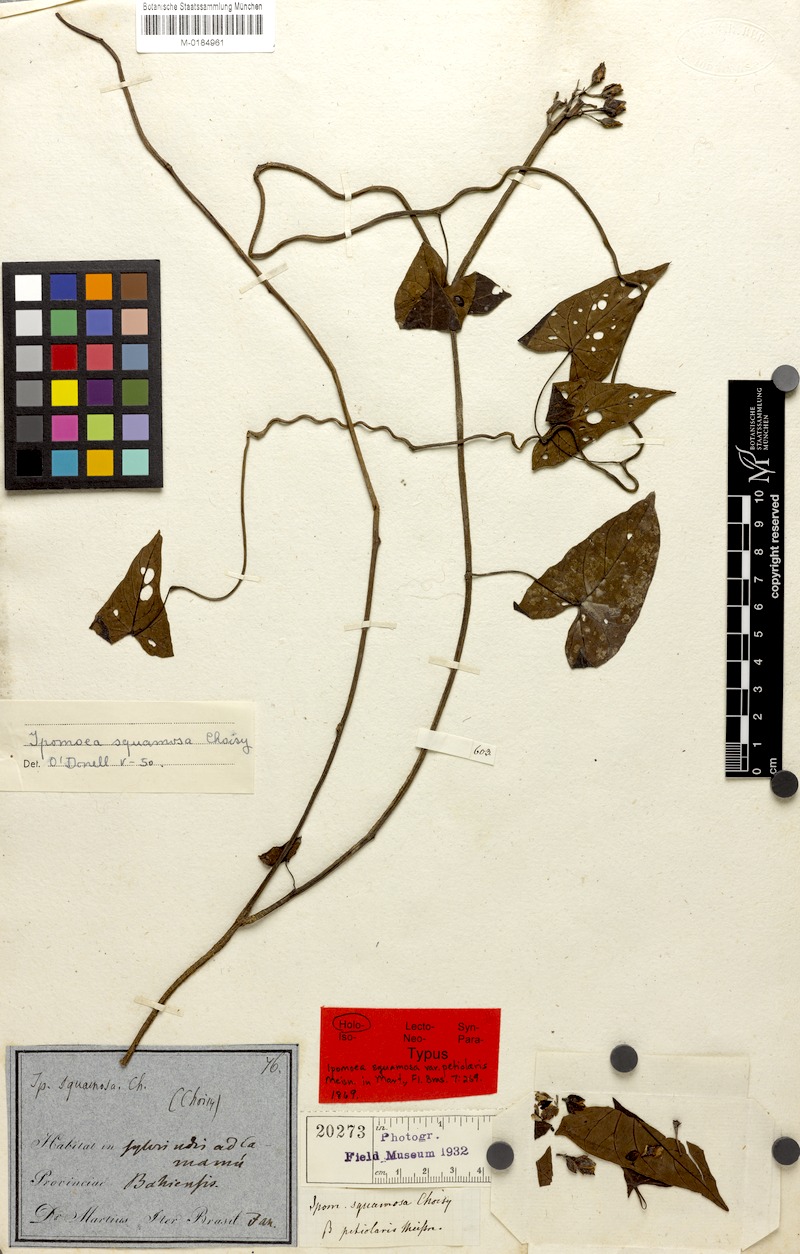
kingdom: Plantae
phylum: Tracheophyta
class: Magnoliopsida
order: Solanales
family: Convolvulaceae
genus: Ipomoea
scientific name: Ipomoea squamosa
